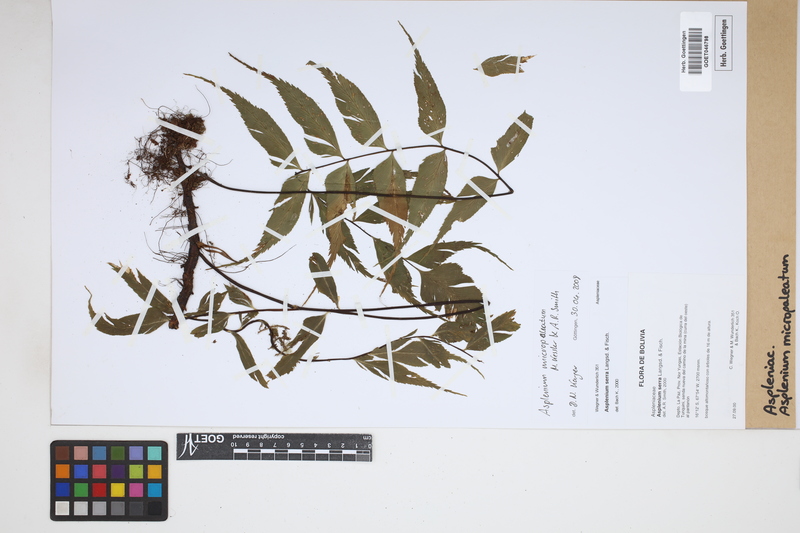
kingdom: Plantae
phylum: Tracheophyta
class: Polypodiopsida
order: Polypodiales
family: Aspleniaceae
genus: Asplenium
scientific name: Asplenium micropaleatum
